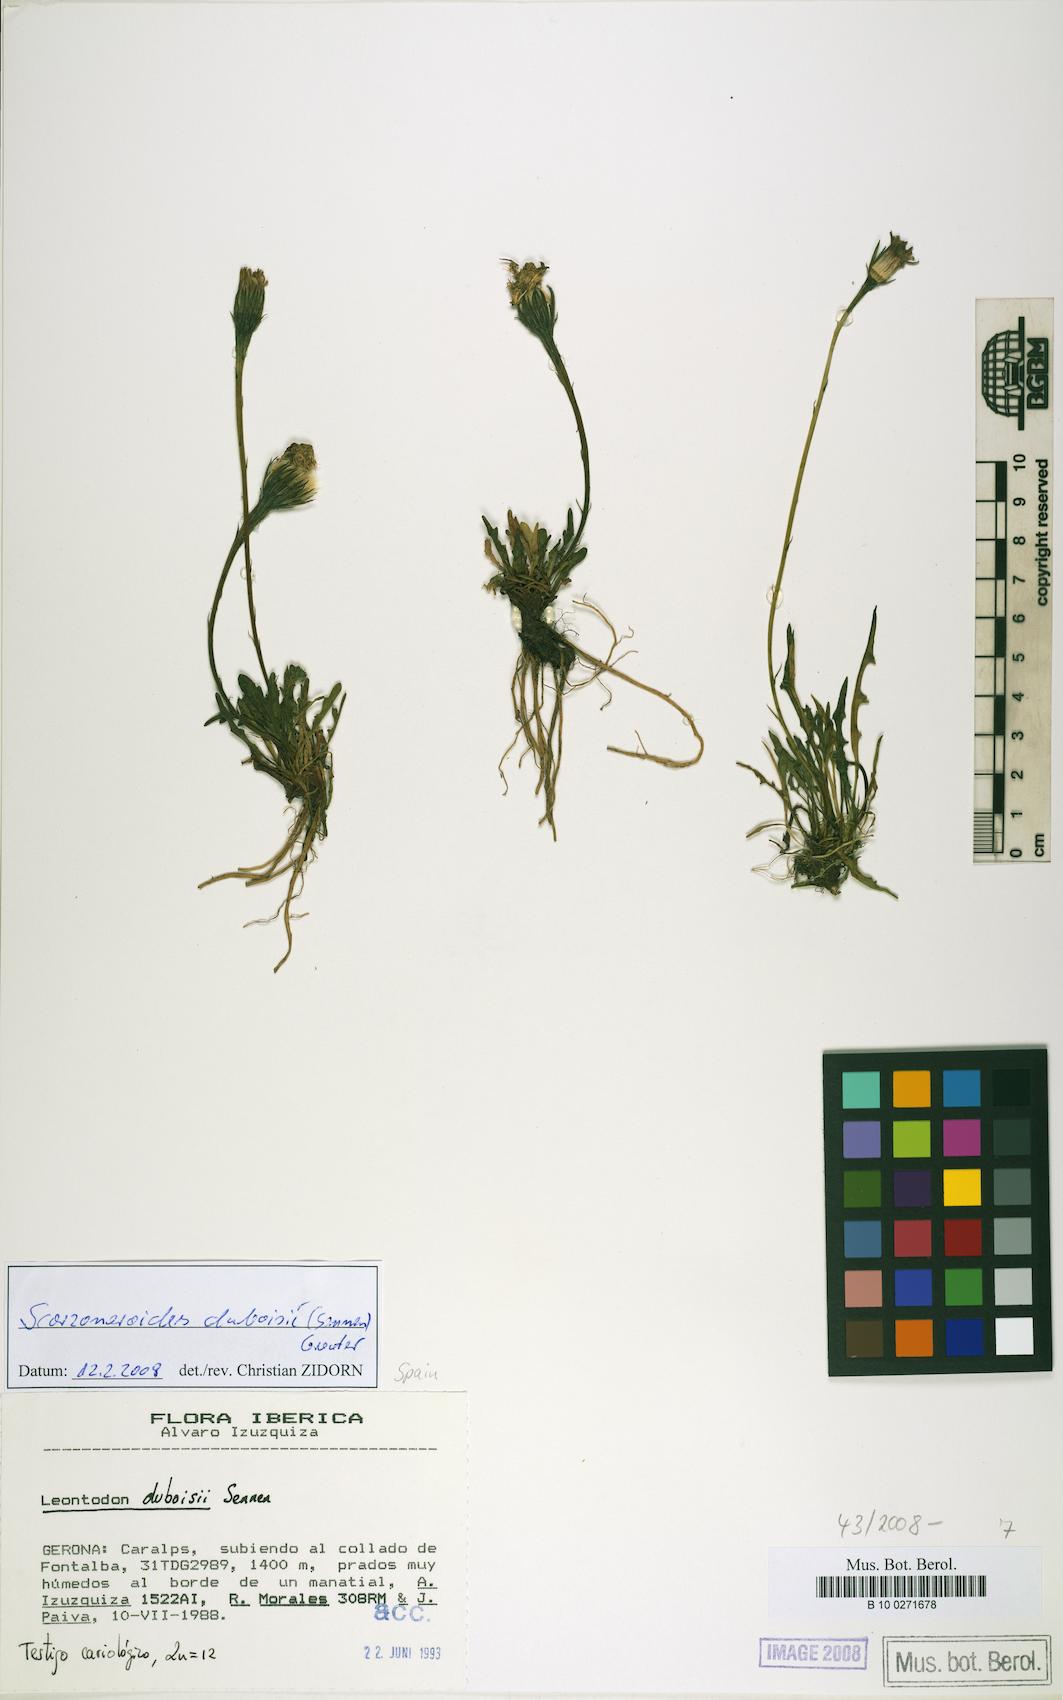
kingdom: Plantae
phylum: Tracheophyta
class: Magnoliopsida
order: Asterales
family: Asteraceae
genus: Scorzoneroides
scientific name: Scorzoneroides carpetana
